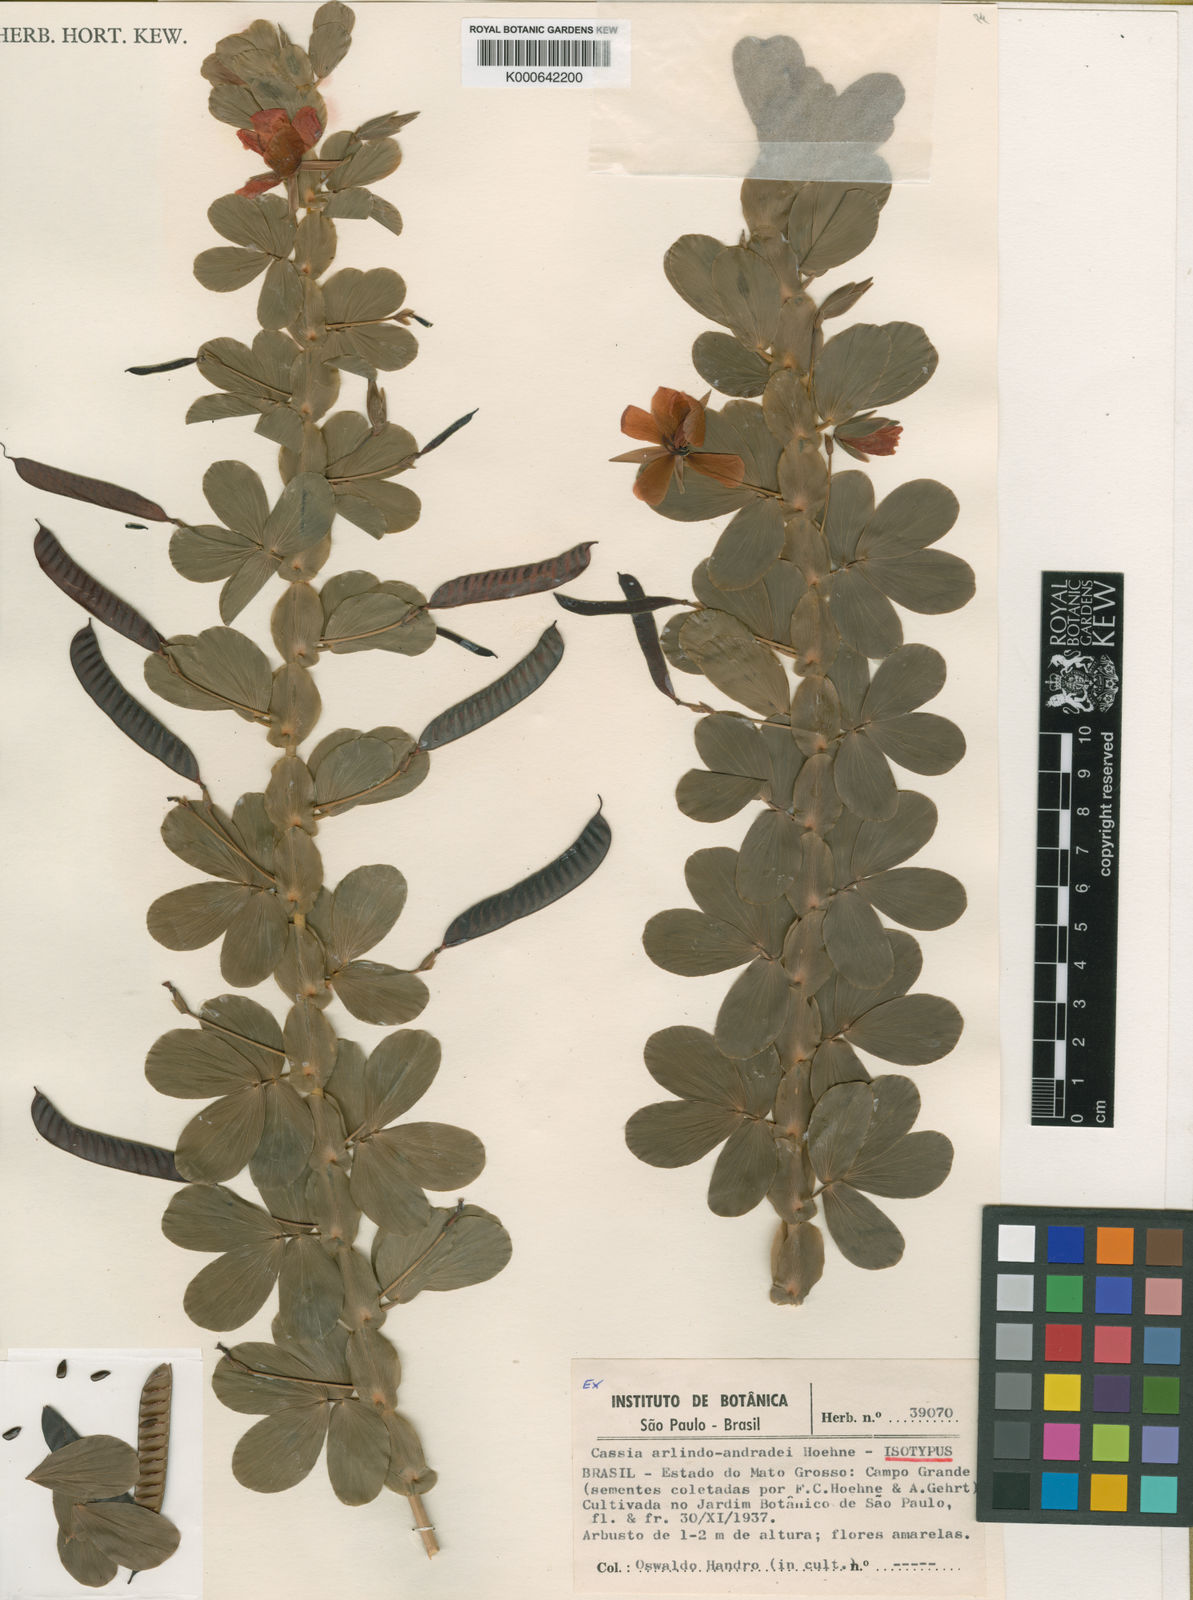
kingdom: Plantae
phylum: Tracheophyta
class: Magnoliopsida
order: Fabales
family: Fabaceae
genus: Chamaecrista
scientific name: Chamaecrista desvauxii
